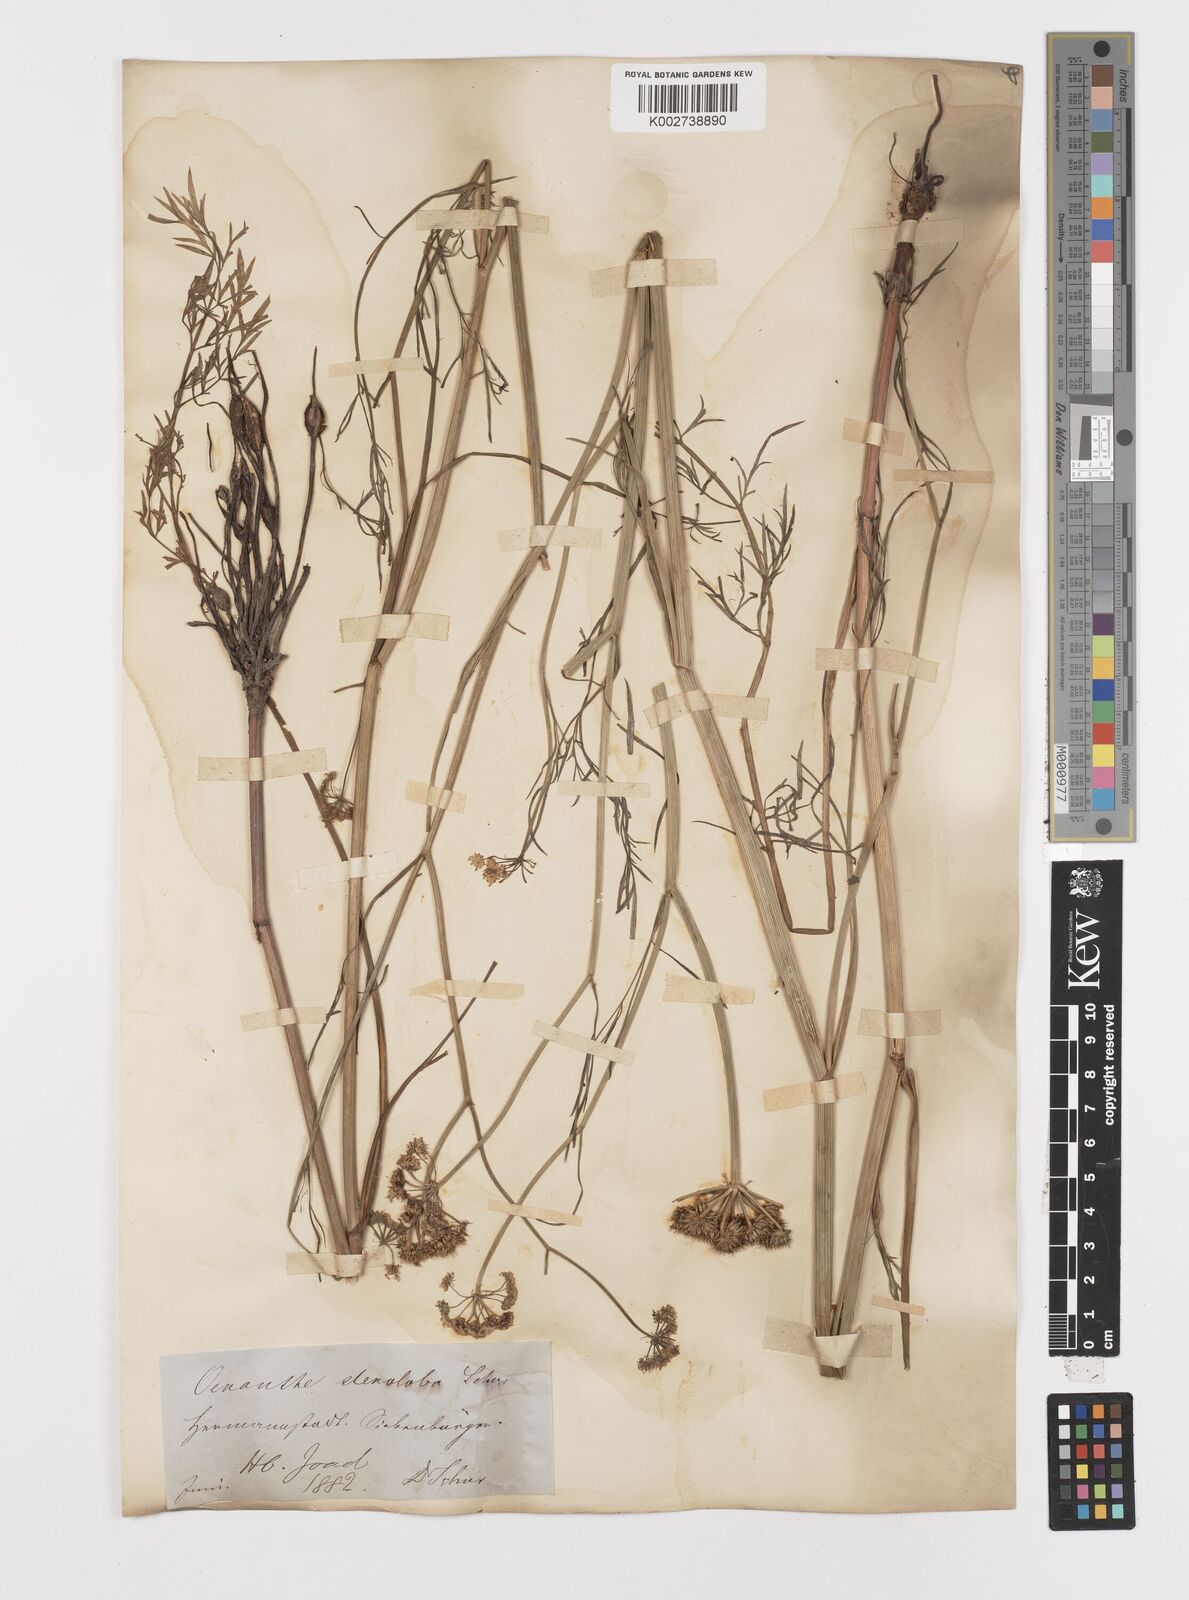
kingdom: Plantae
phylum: Tracheophyta
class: Magnoliopsida
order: Apiales
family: Apiaceae
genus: Oenanthe
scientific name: Oenanthe peucedanifolia
